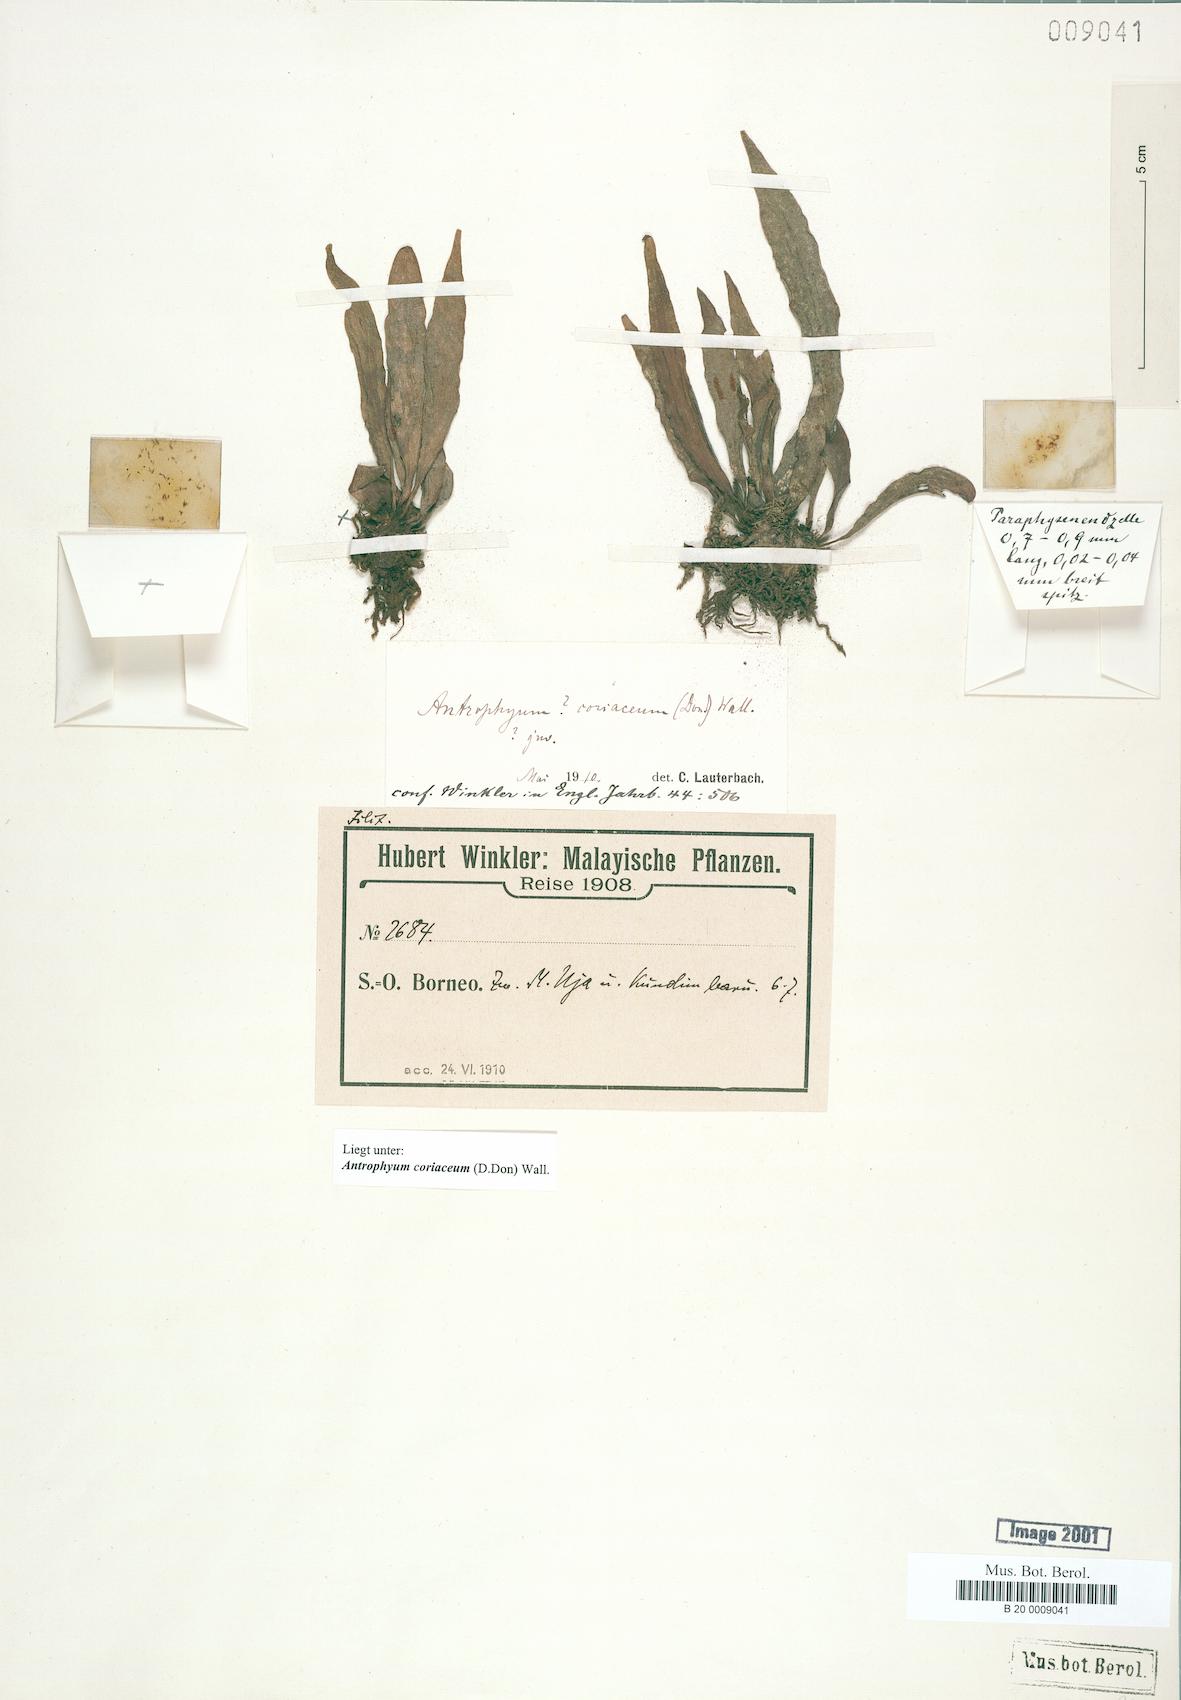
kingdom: Plantae
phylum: Tracheophyta
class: Polypodiopsida
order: Polypodiales
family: Pteridaceae
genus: Antrophyum
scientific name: Antrophyum reticulatum
